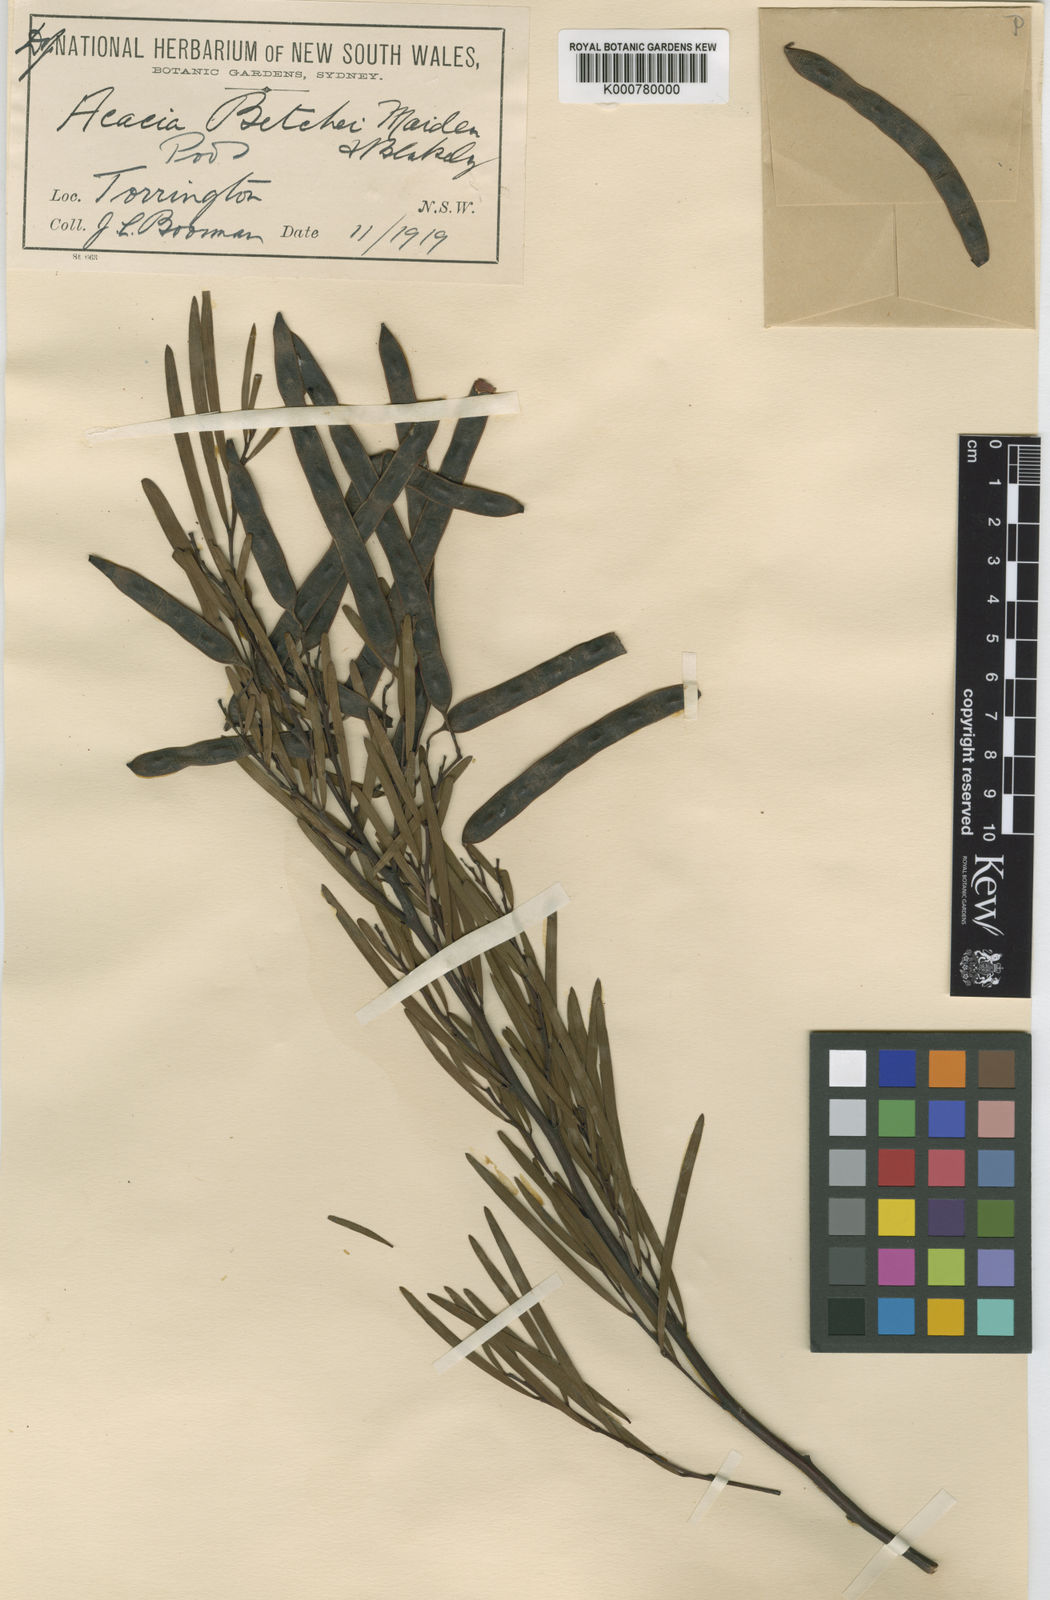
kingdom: Plantae
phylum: Tracheophyta
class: Magnoliopsida
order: Fabales
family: Fabaceae
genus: Acacia
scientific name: Acacia betchei
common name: Red-tip wattle
